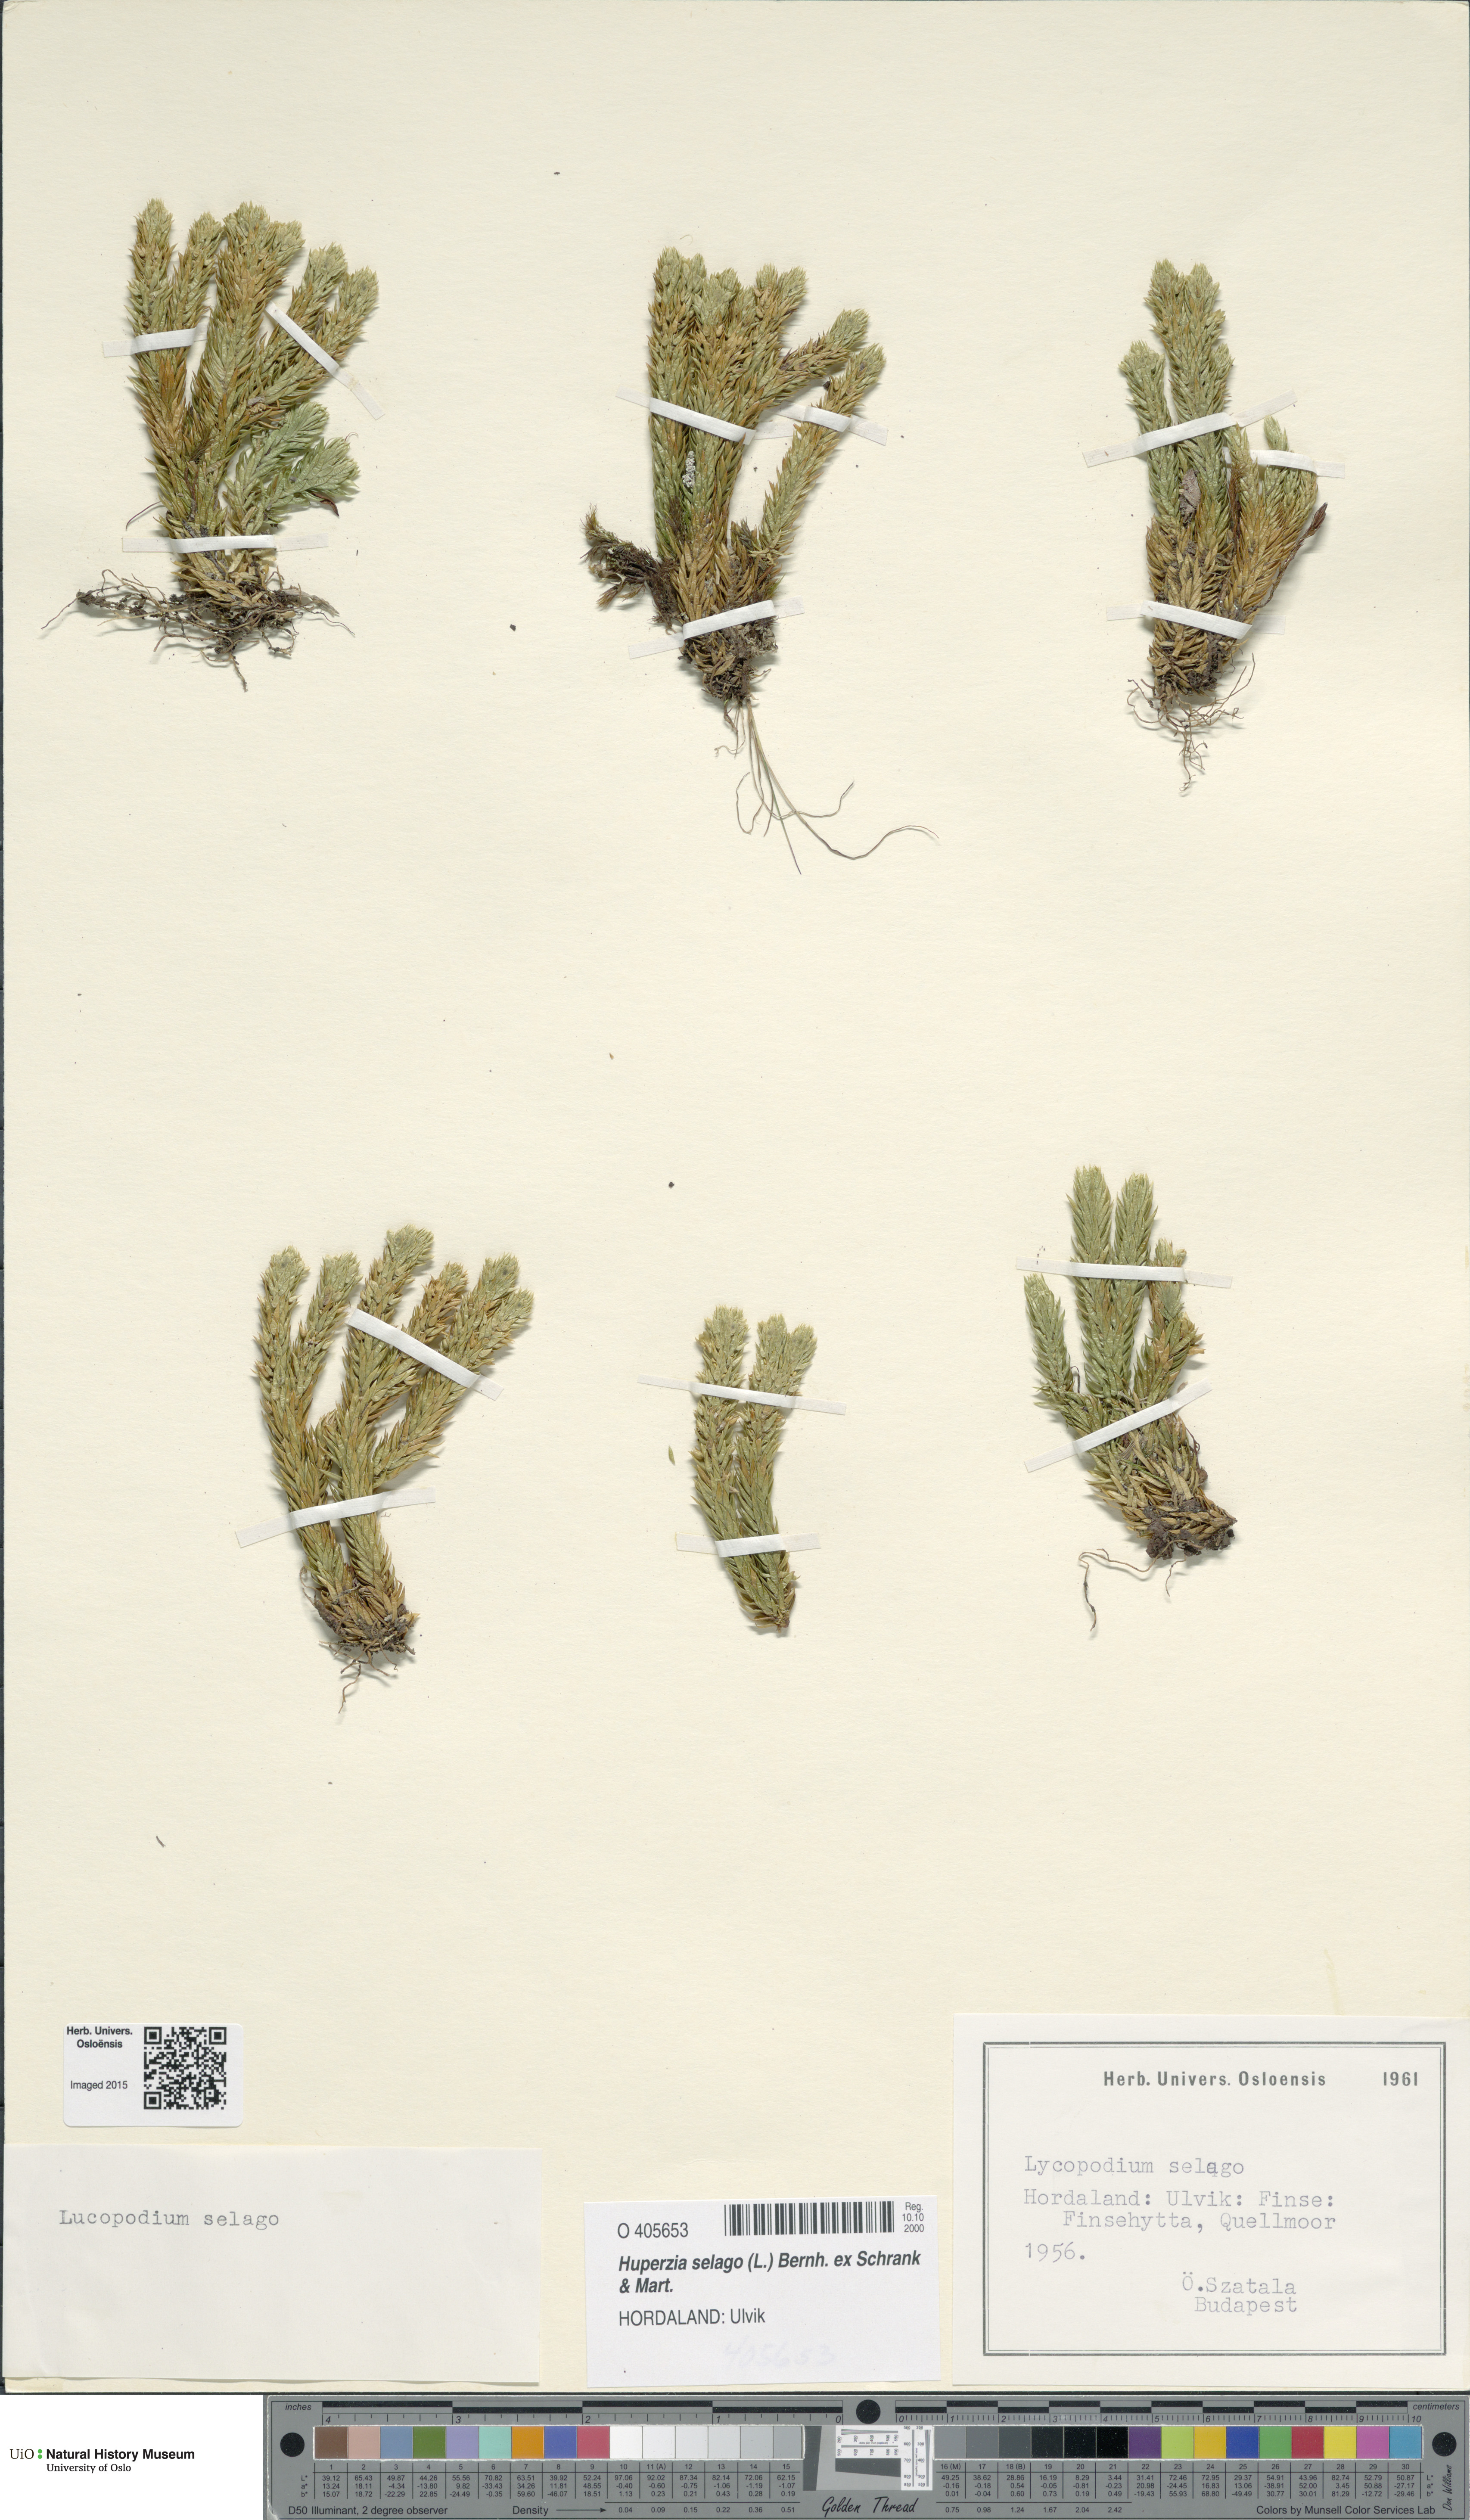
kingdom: Plantae
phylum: Tracheophyta
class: Lycopodiopsida
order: Lycopodiales
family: Lycopodiaceae
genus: Huperzia
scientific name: Huperzia selago
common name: Northern firmoss
